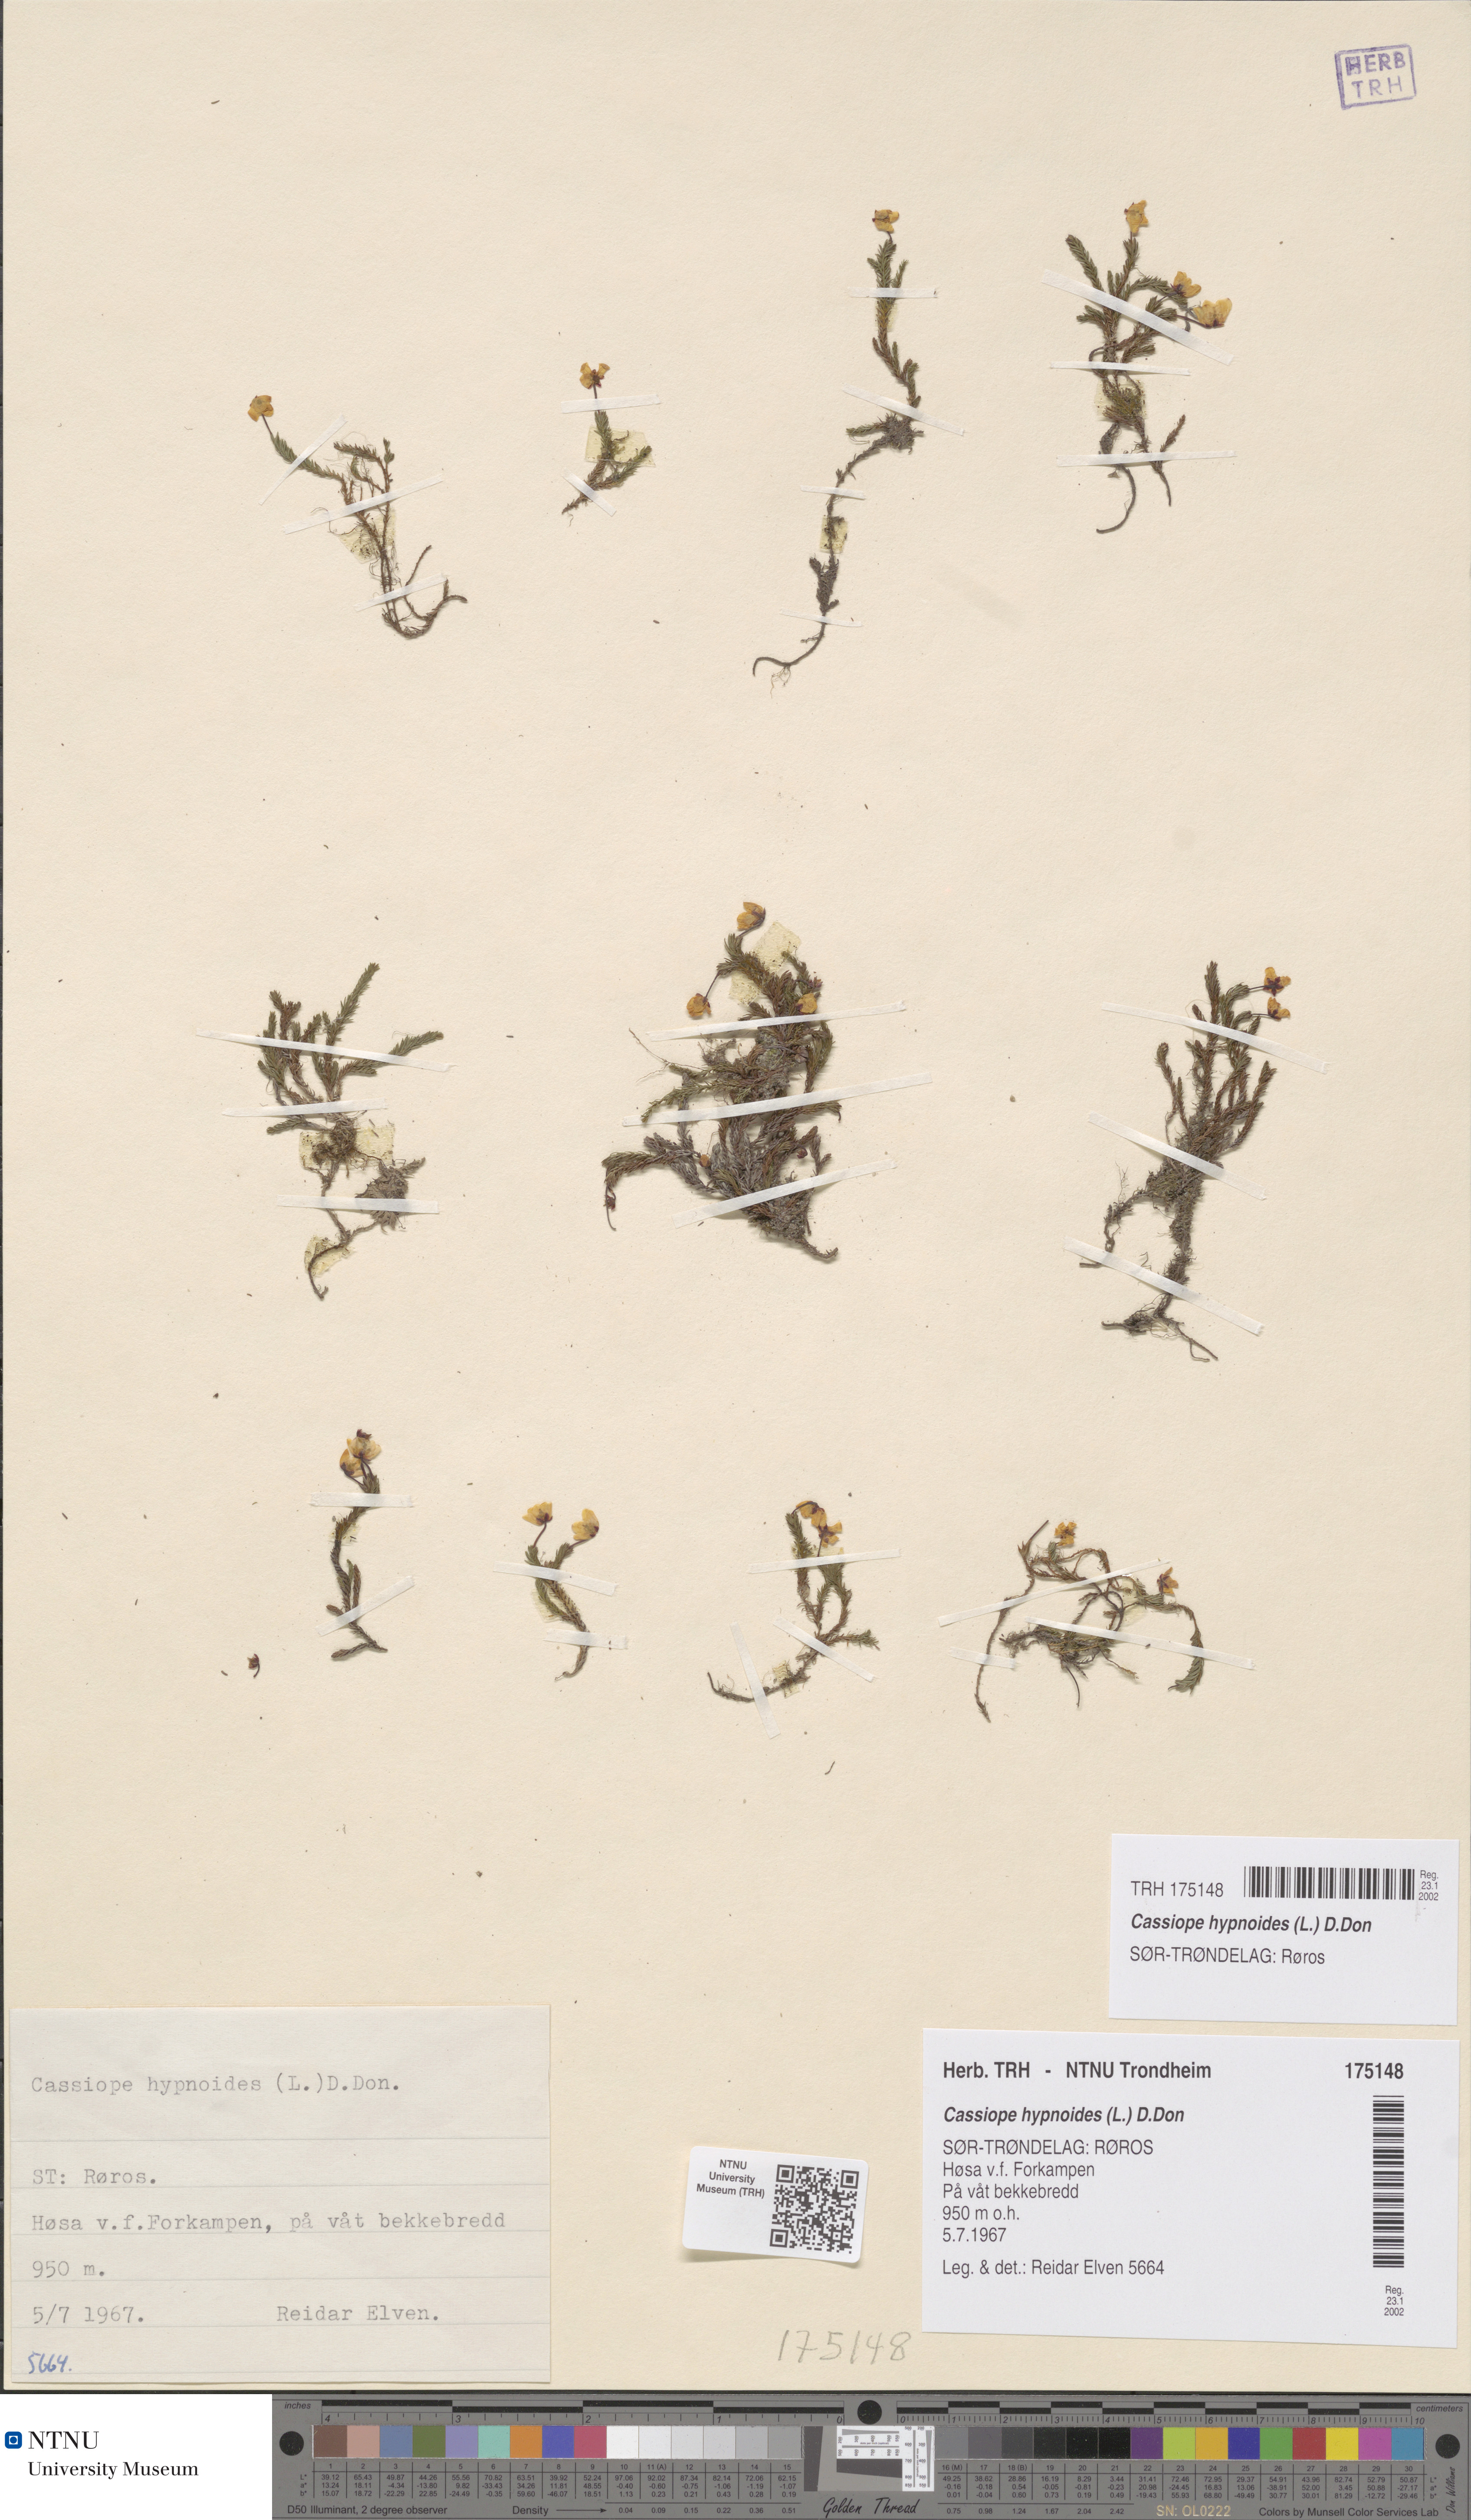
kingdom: Plantae
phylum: Tracheophyta
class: Magnoliopsida
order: Ericales
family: Ericaceae
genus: Harrimanella
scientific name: Harrimanella hypnoides
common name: Moss bell heather
